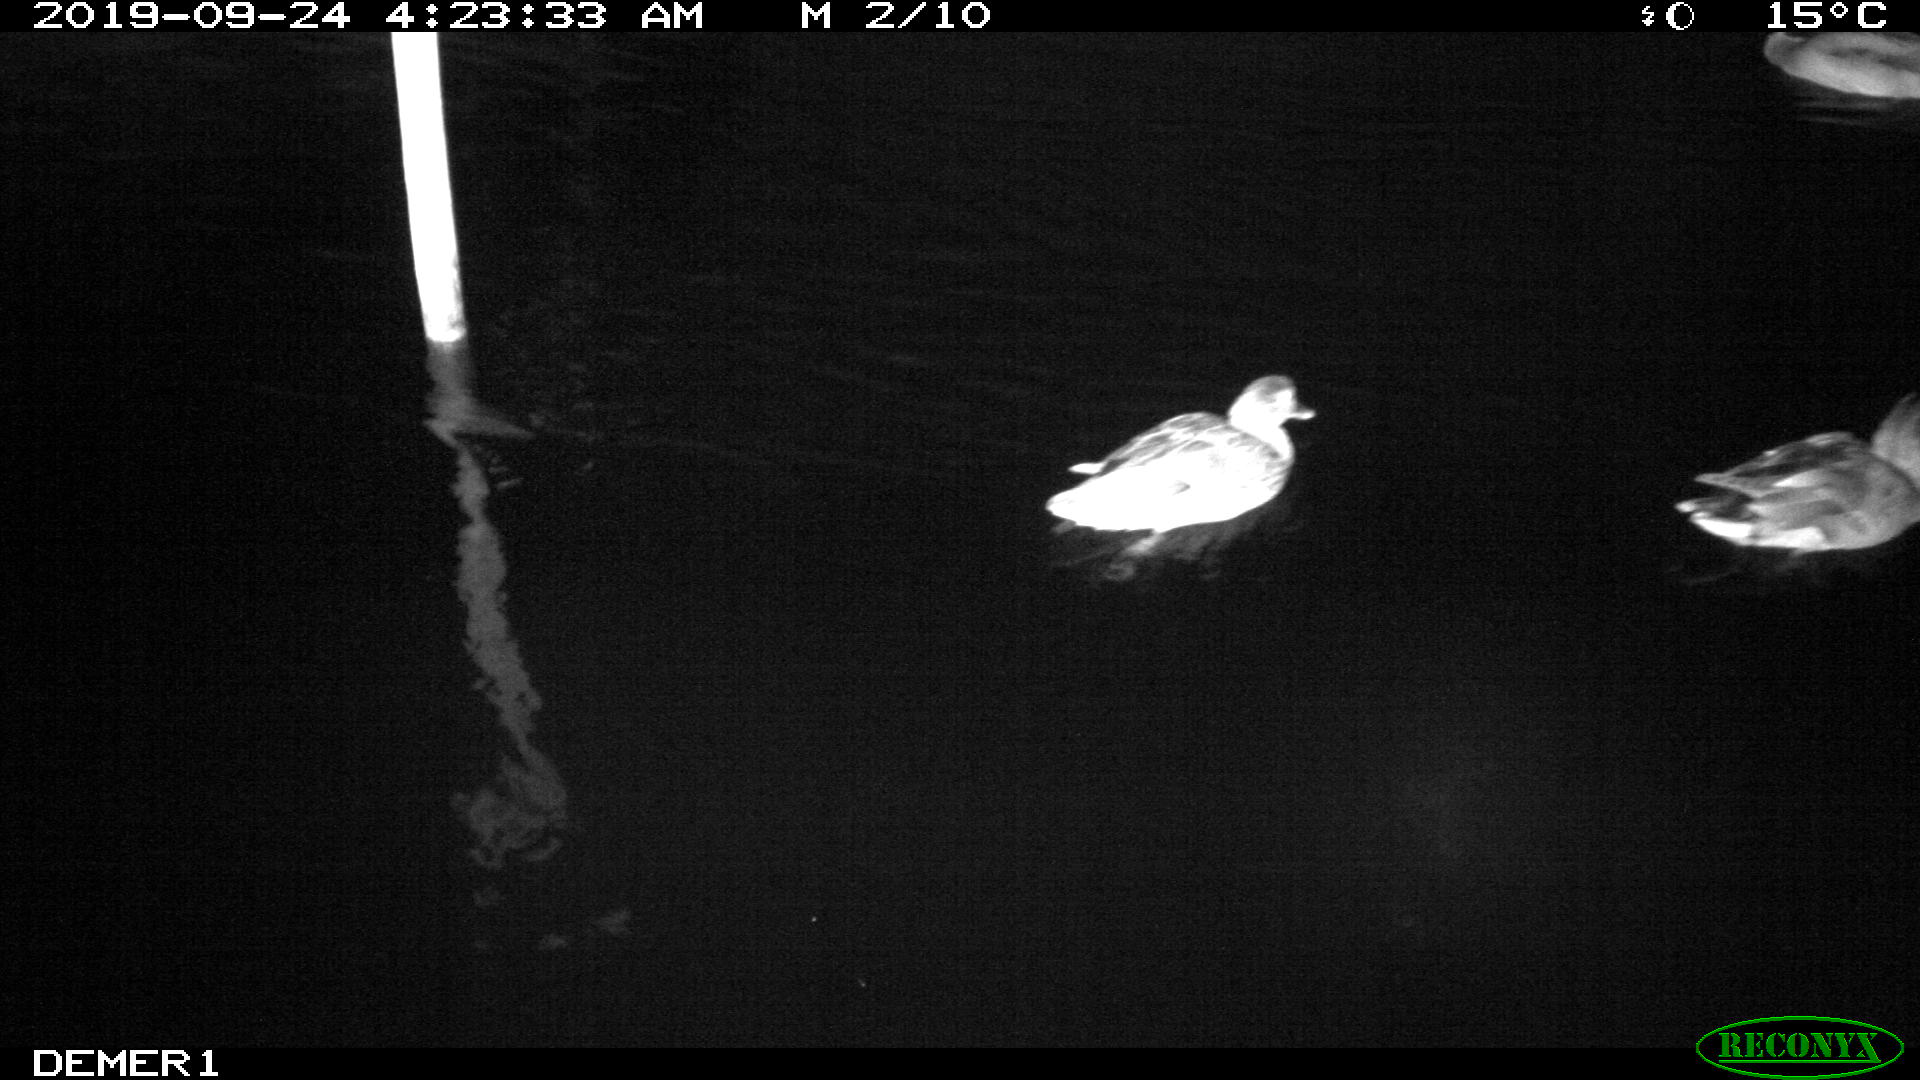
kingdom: Animalia
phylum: Chordata
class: Aves
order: Anseriformes
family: Anatidae
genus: Anas
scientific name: Anas platyrhynchos
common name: Mallard
